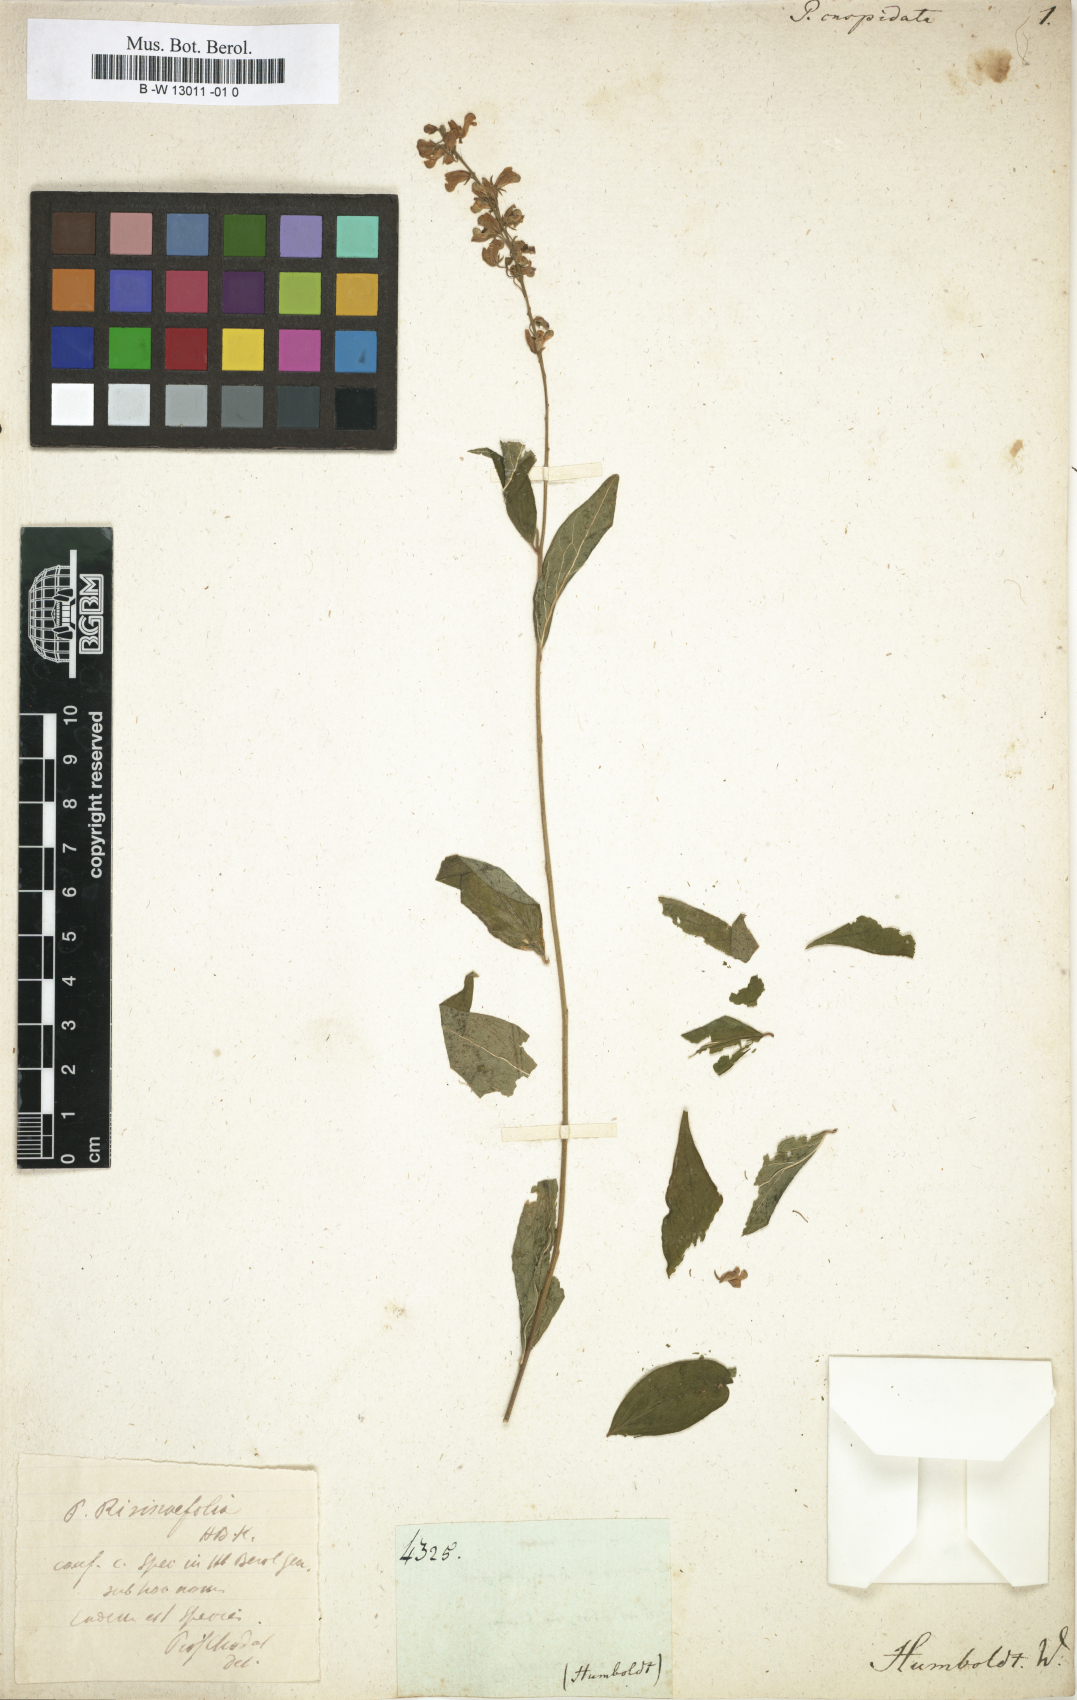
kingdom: Plantae
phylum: Tracheophyta
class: Magnoliopsida
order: Fabales
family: Polygalaceae
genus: Polygala
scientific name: Polygala cuspidata
